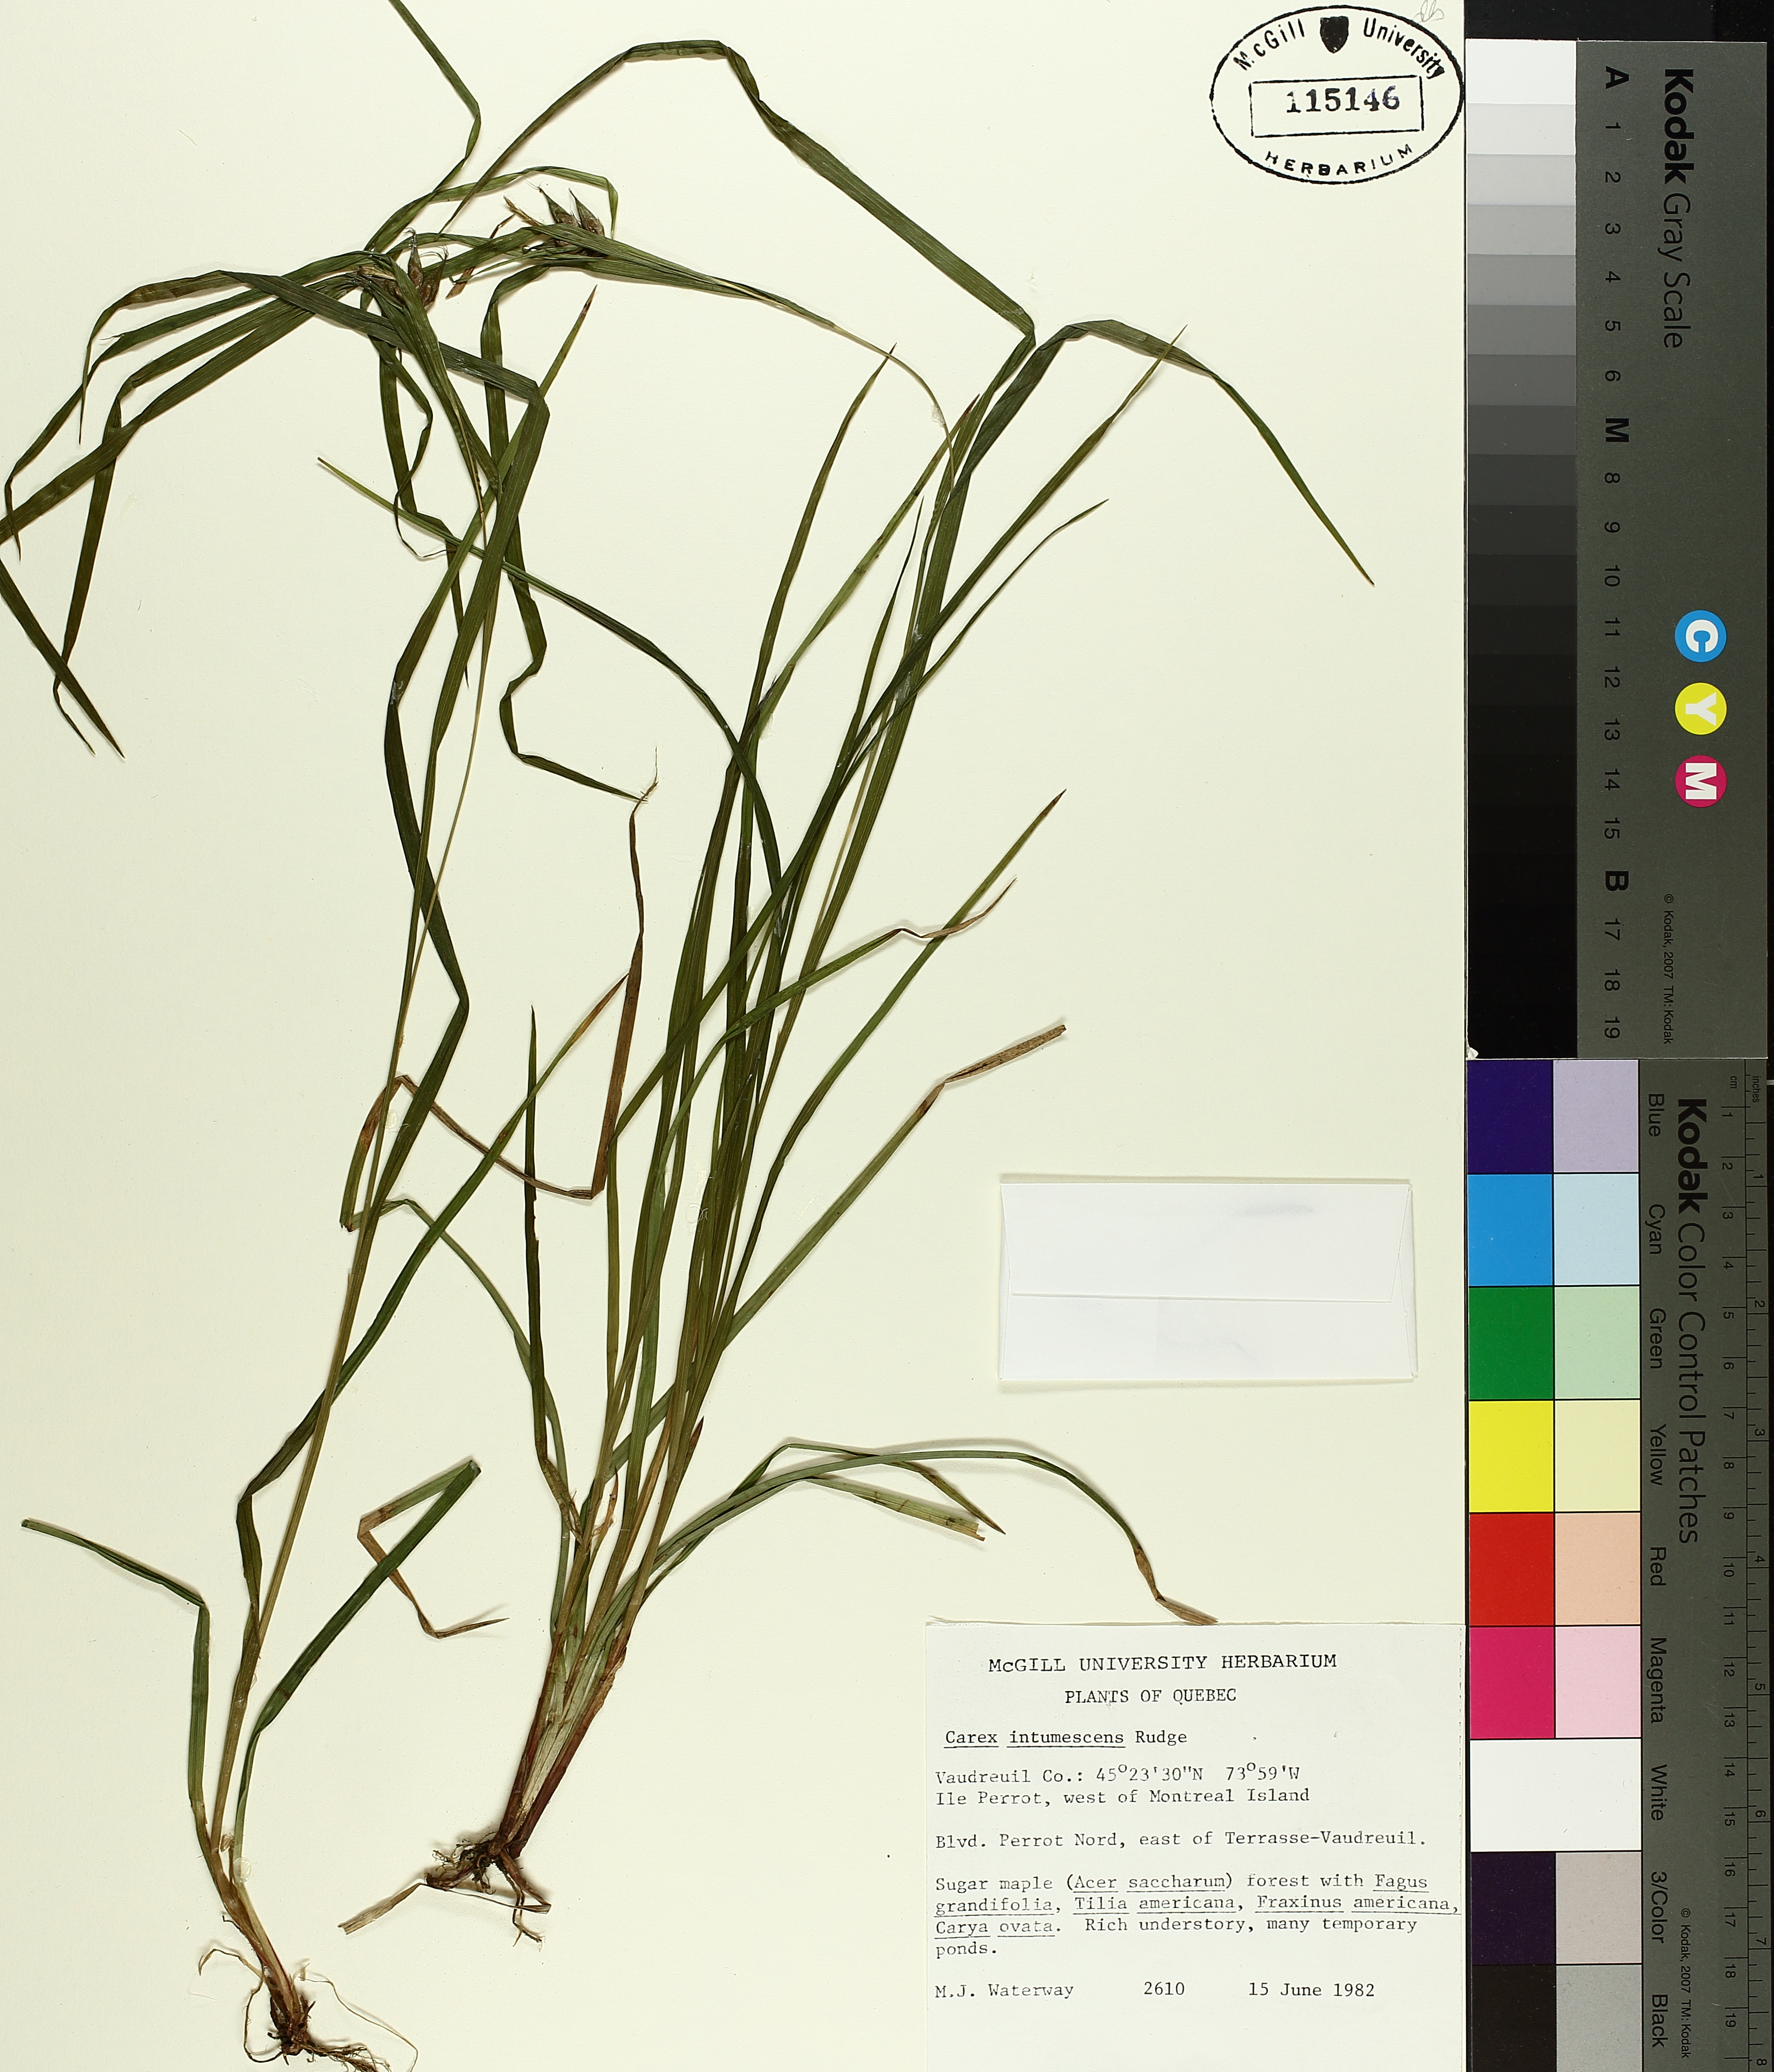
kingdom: Plantae
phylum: Tracheophyta
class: Liliopsida
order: Poales
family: Cyperaceae
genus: Carex
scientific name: Carex intumescens
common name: Greater bladder sedge
